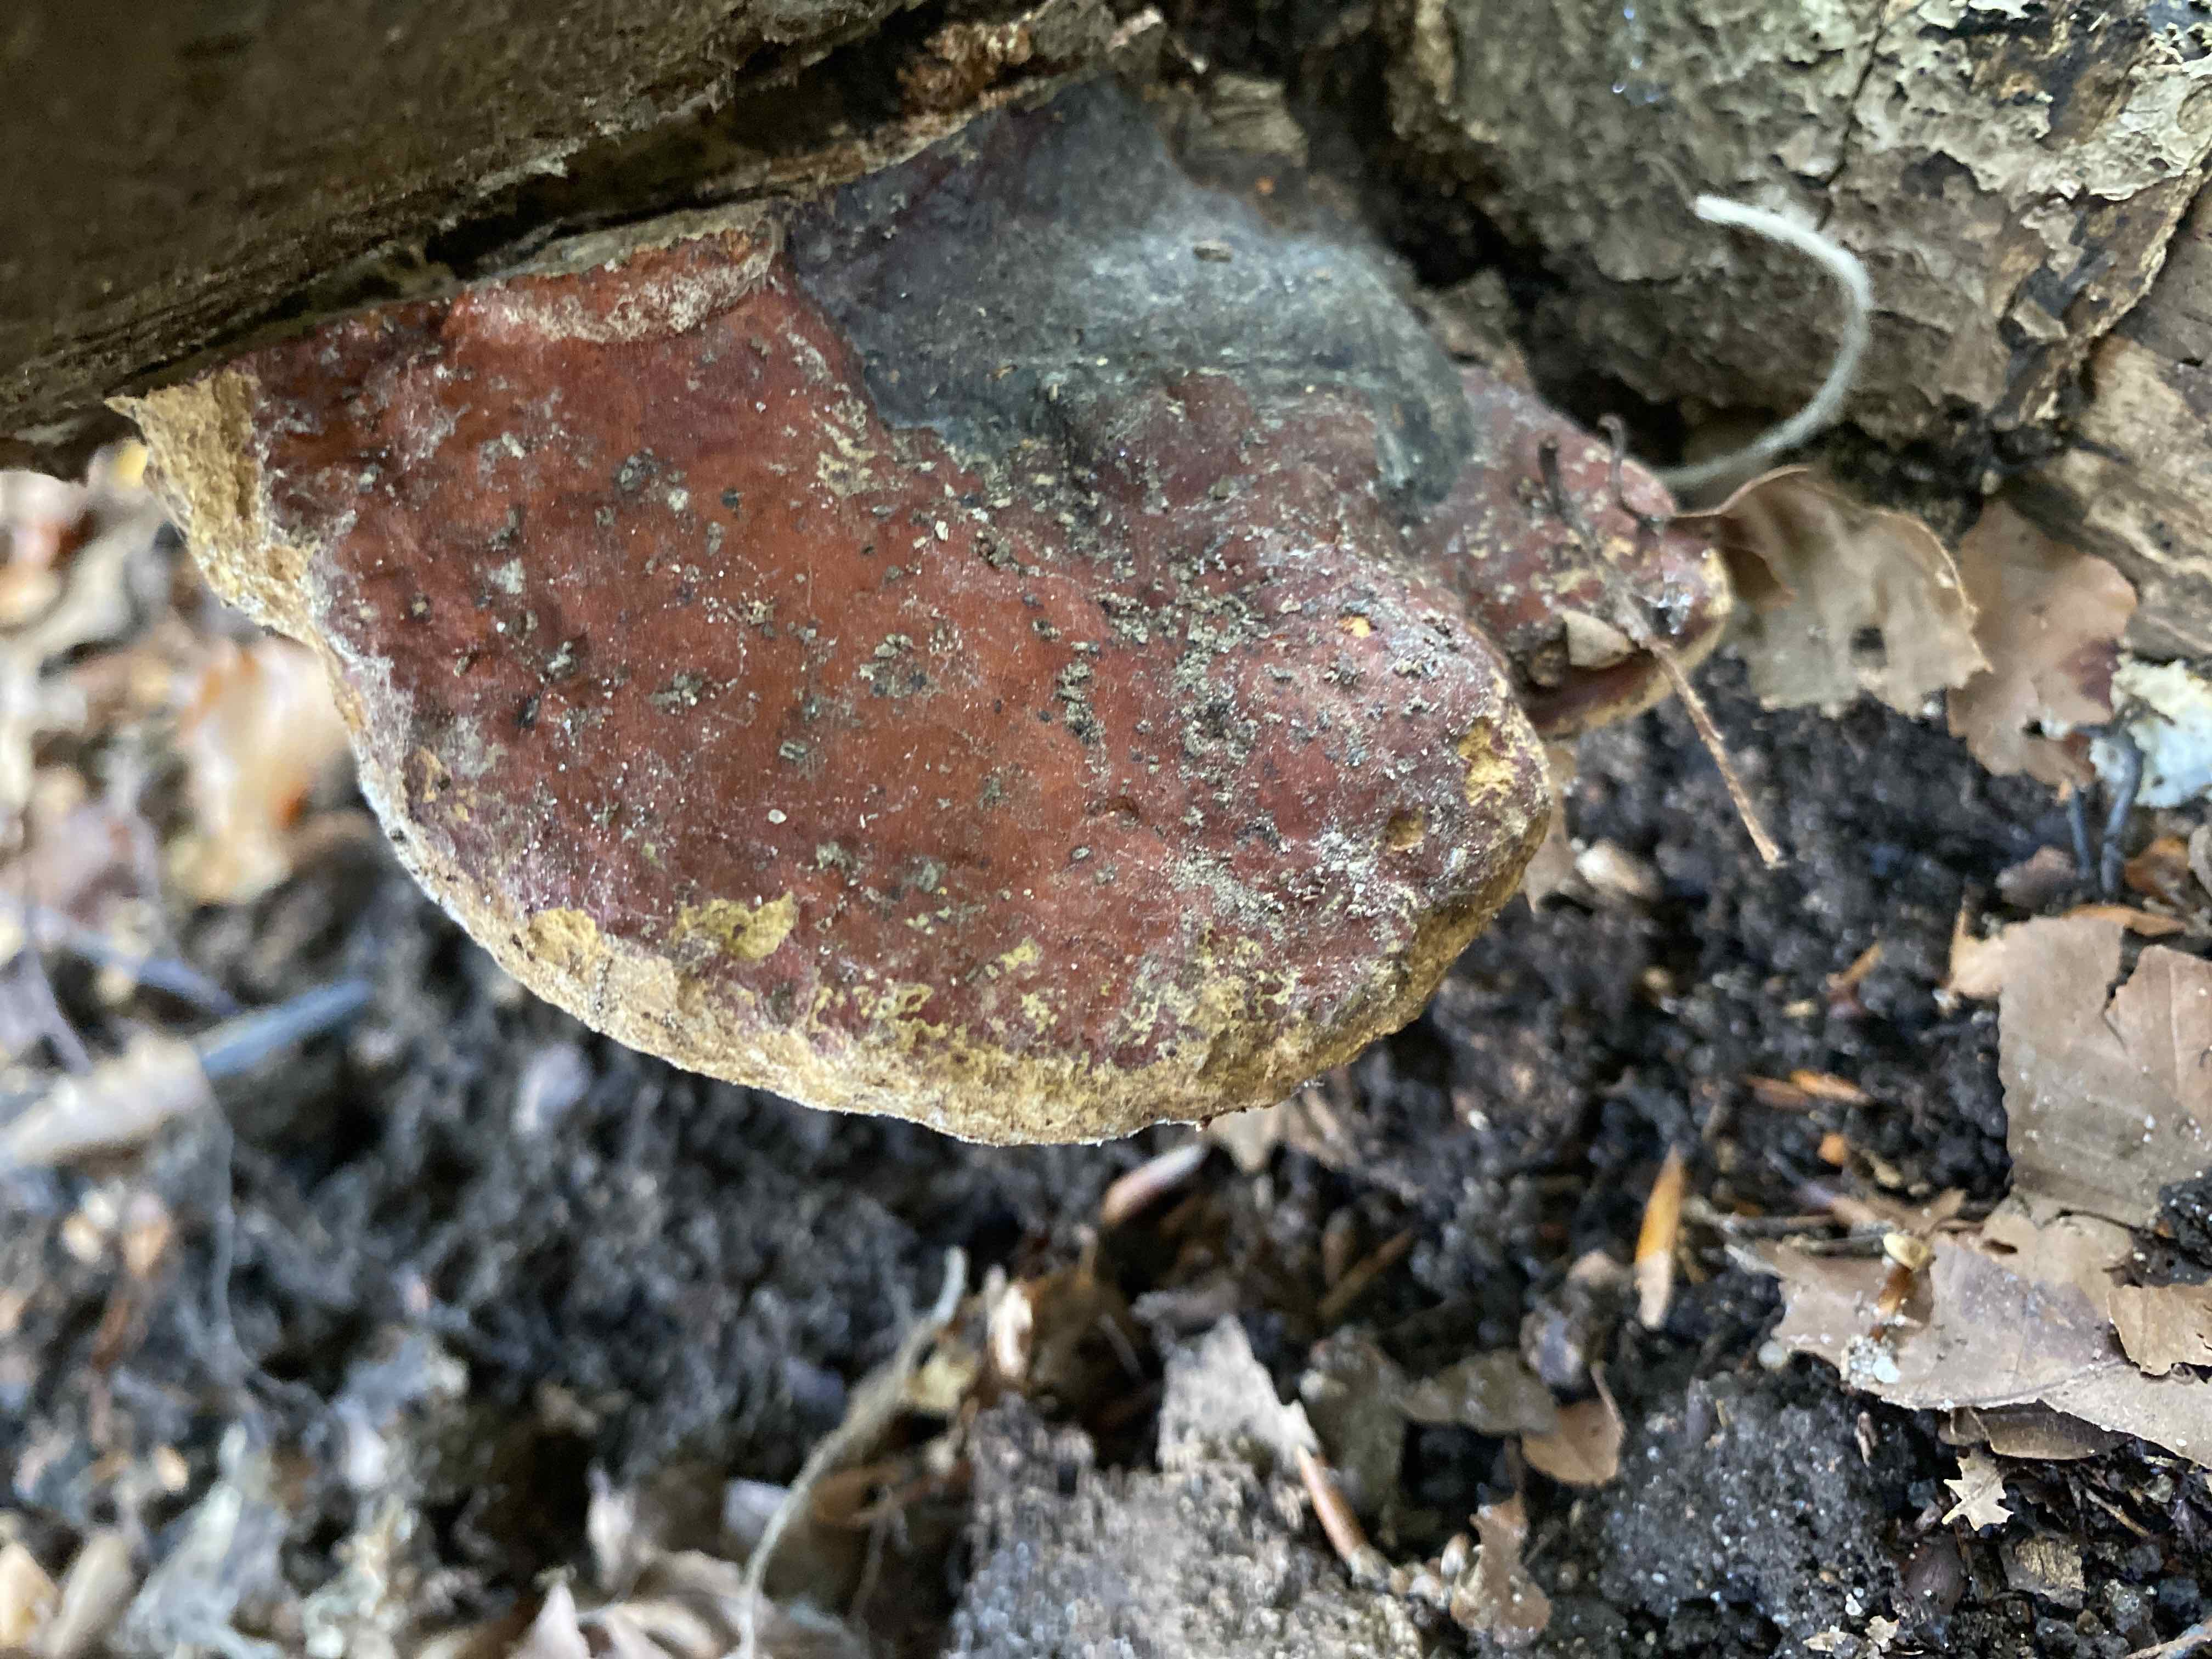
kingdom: Fungi
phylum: Basidiomycota
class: Agaricomycetes
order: Polyporales
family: Fomitopsidaceae
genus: Fomitopsis
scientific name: Fomitopsis pinicola
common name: randbæltet hovporesvamp
